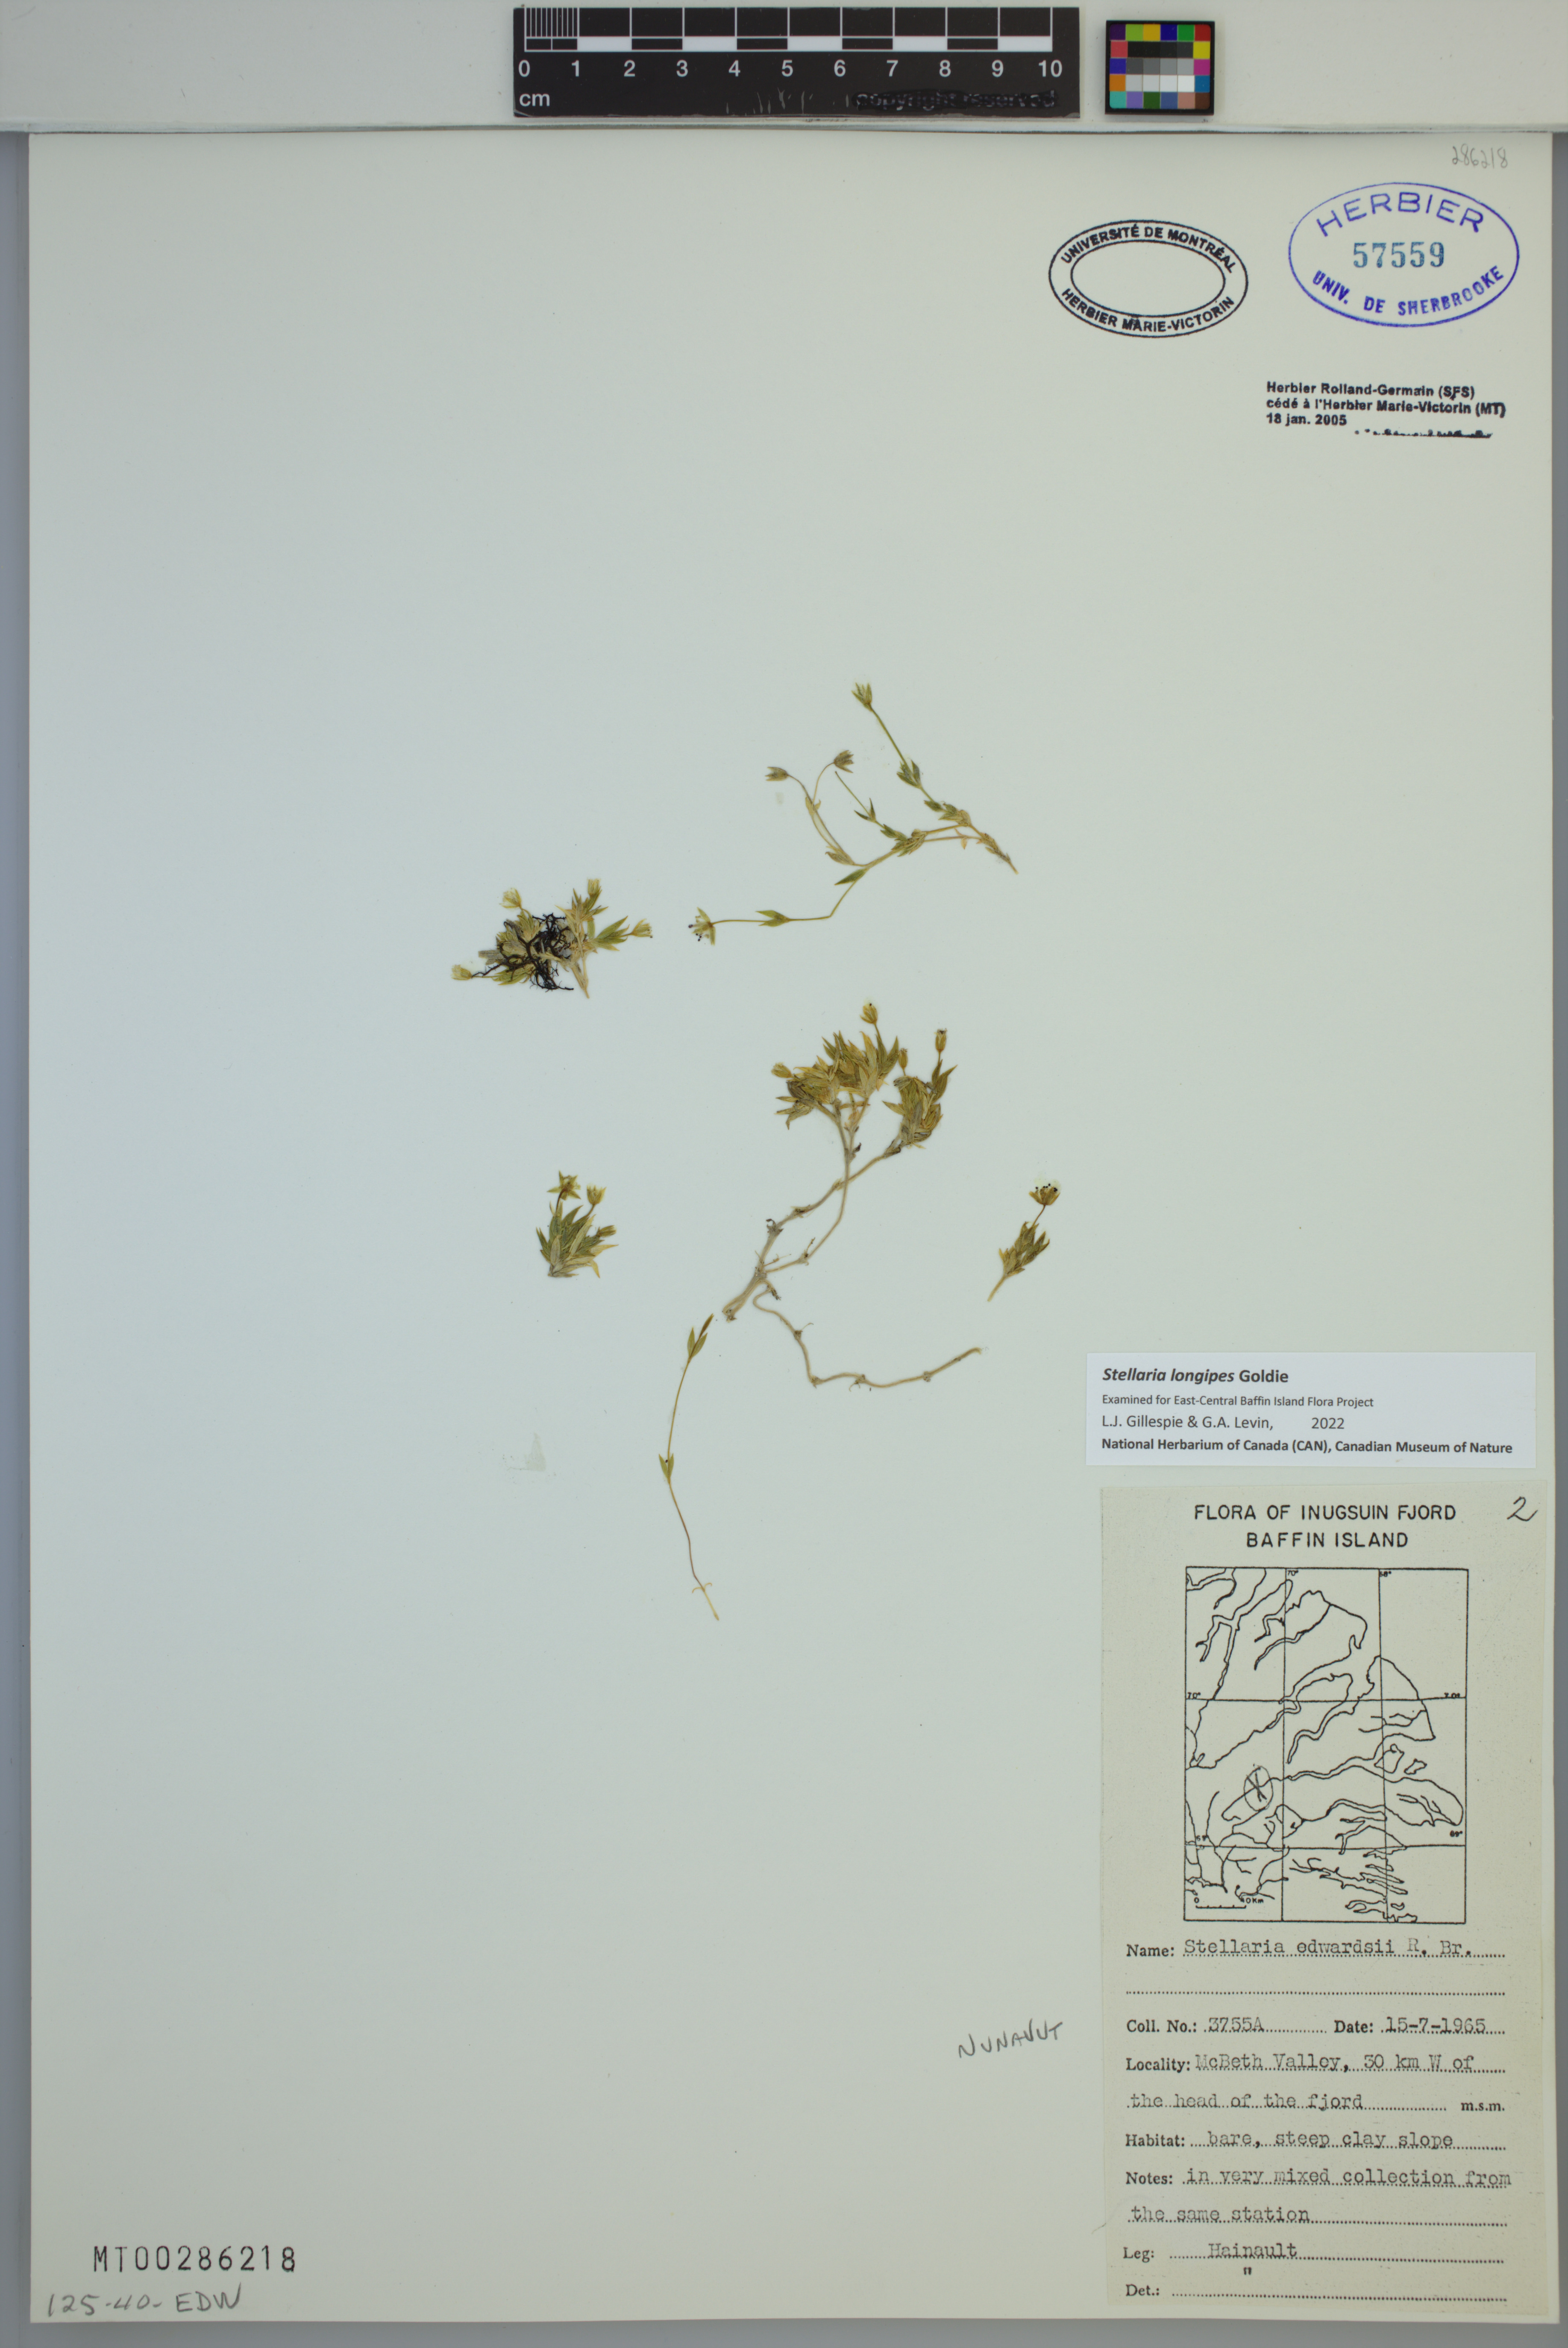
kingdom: Plantae
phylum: Tracheophyta
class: Magnoliopsida
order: Caryophyllales
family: Caryophyllaceae
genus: Stellaria
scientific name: Stellaria longipes
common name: Goldie's starwort
